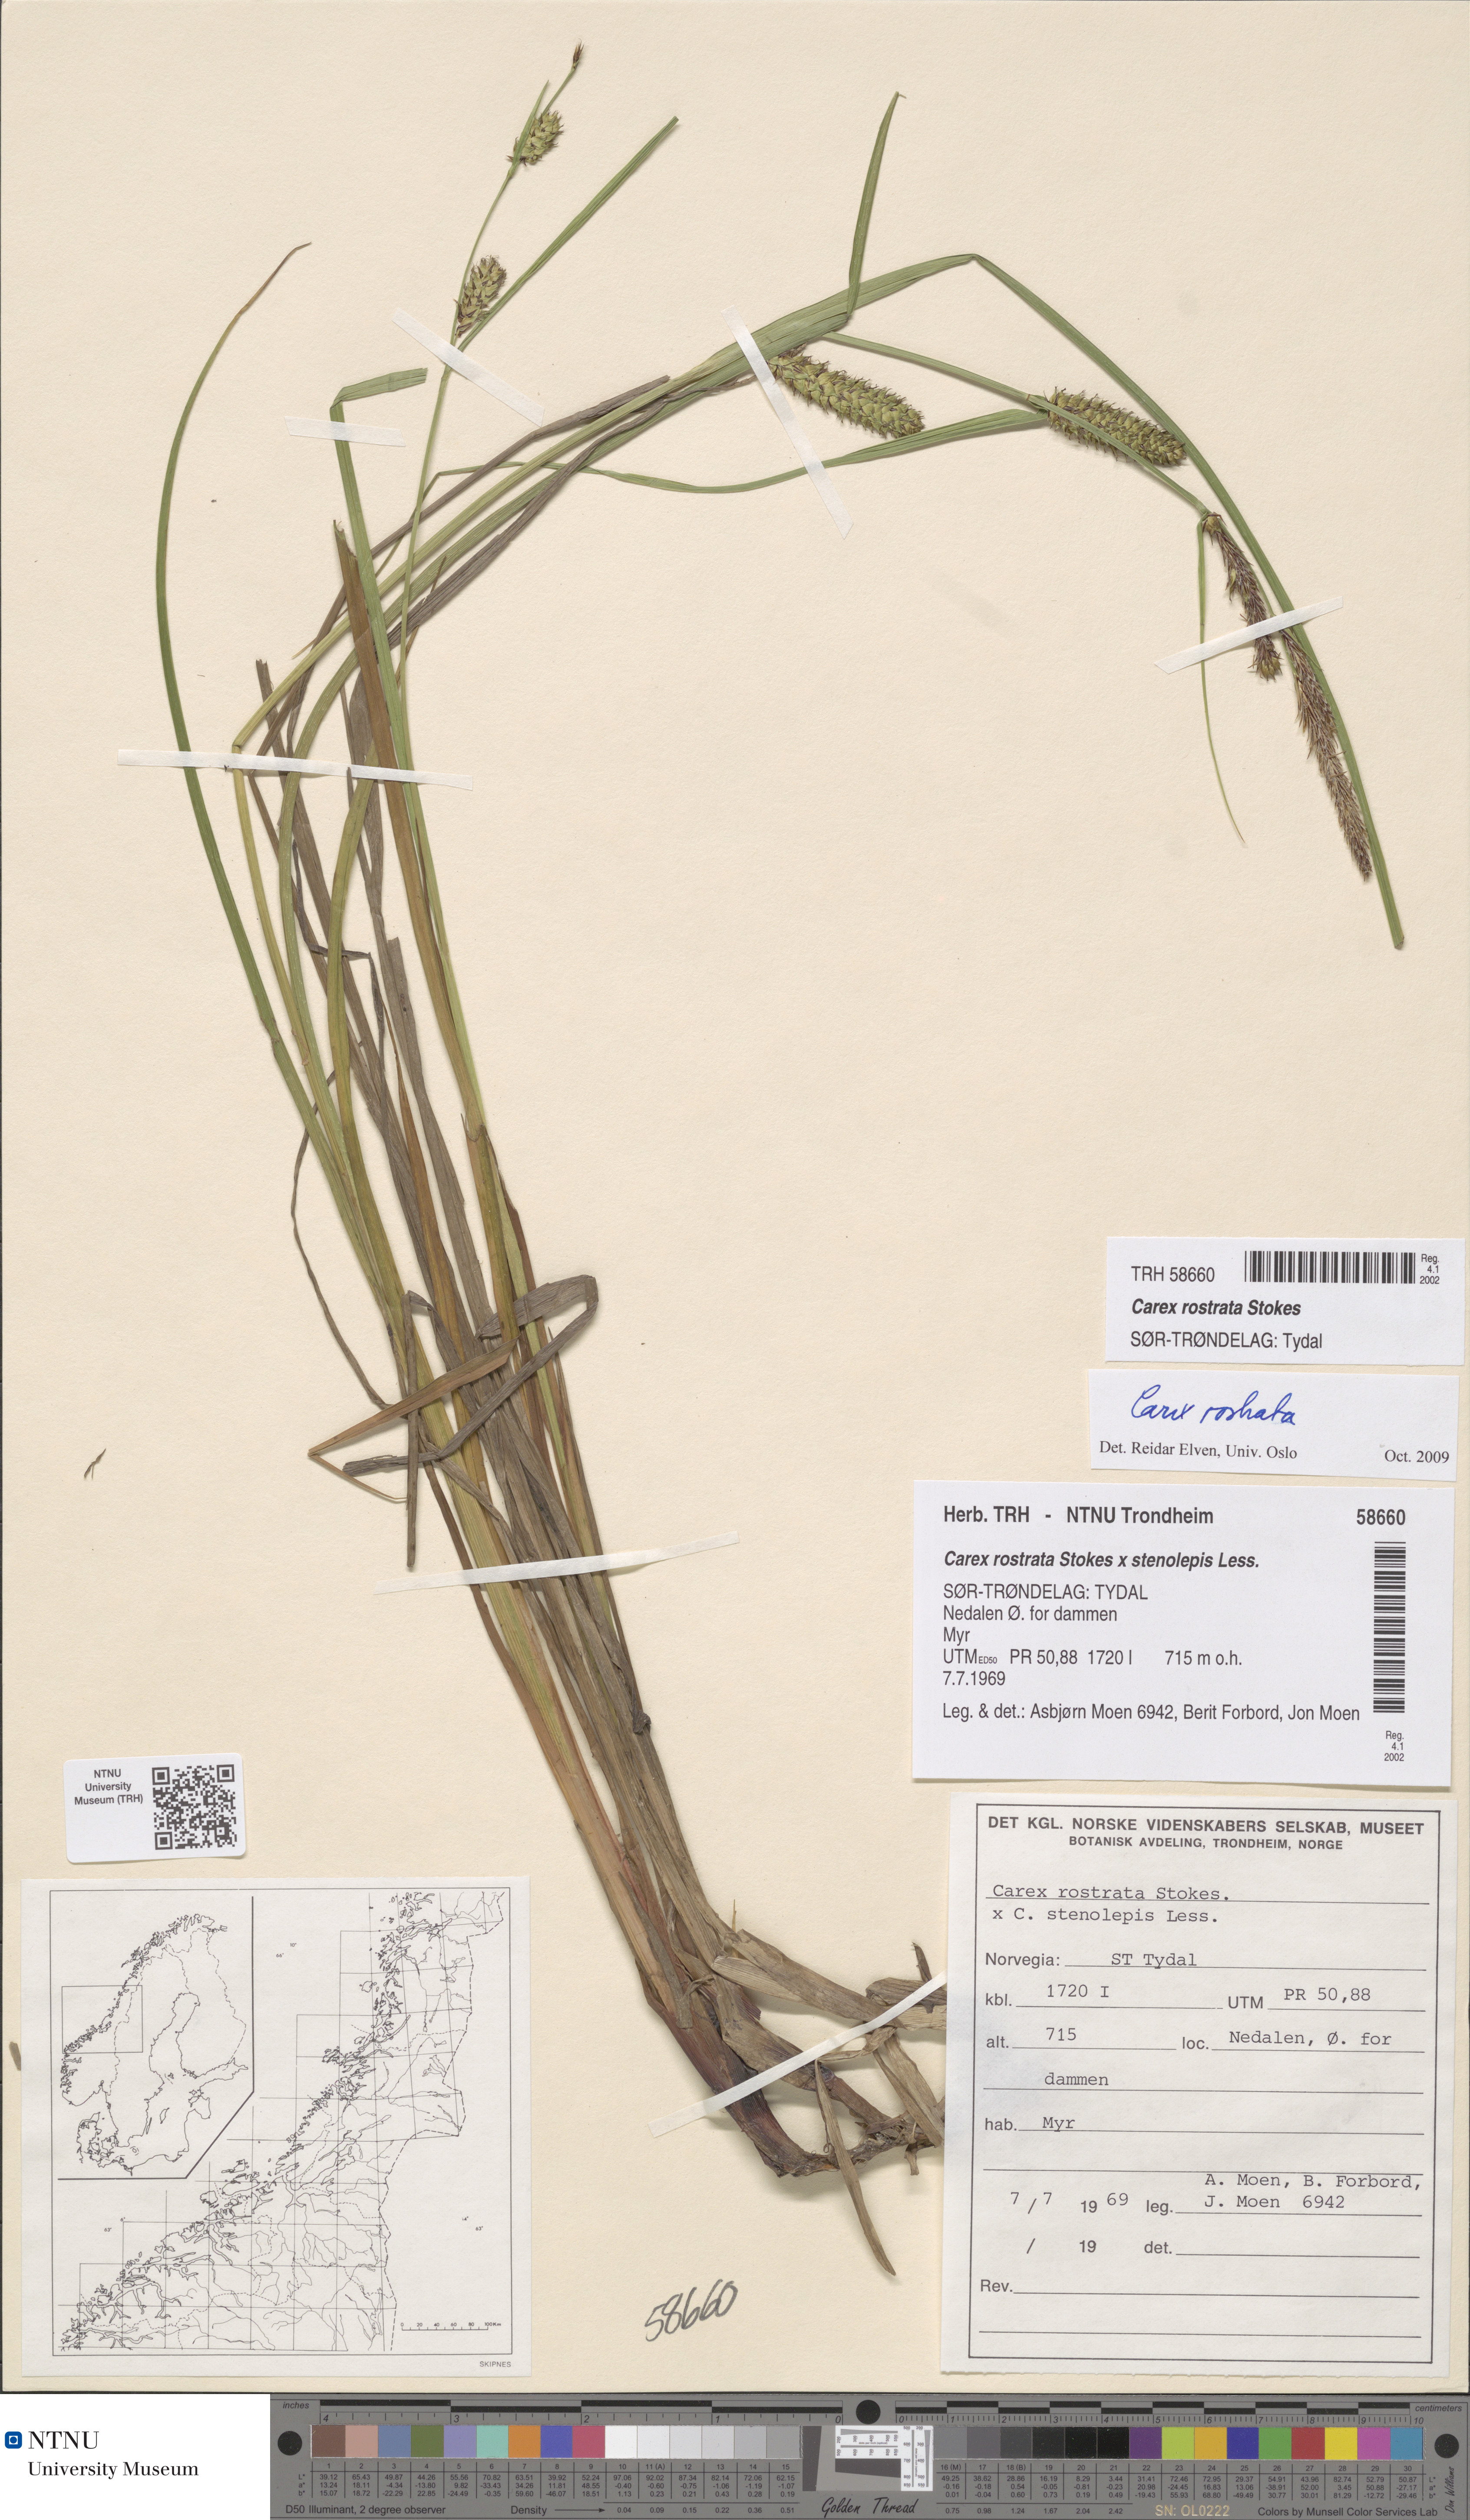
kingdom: Plantae
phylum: Tracheophyta
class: Liliopsida
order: Poales
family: Cyperaceae
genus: Carex
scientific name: Carex rostrata
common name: Bottle sedge
